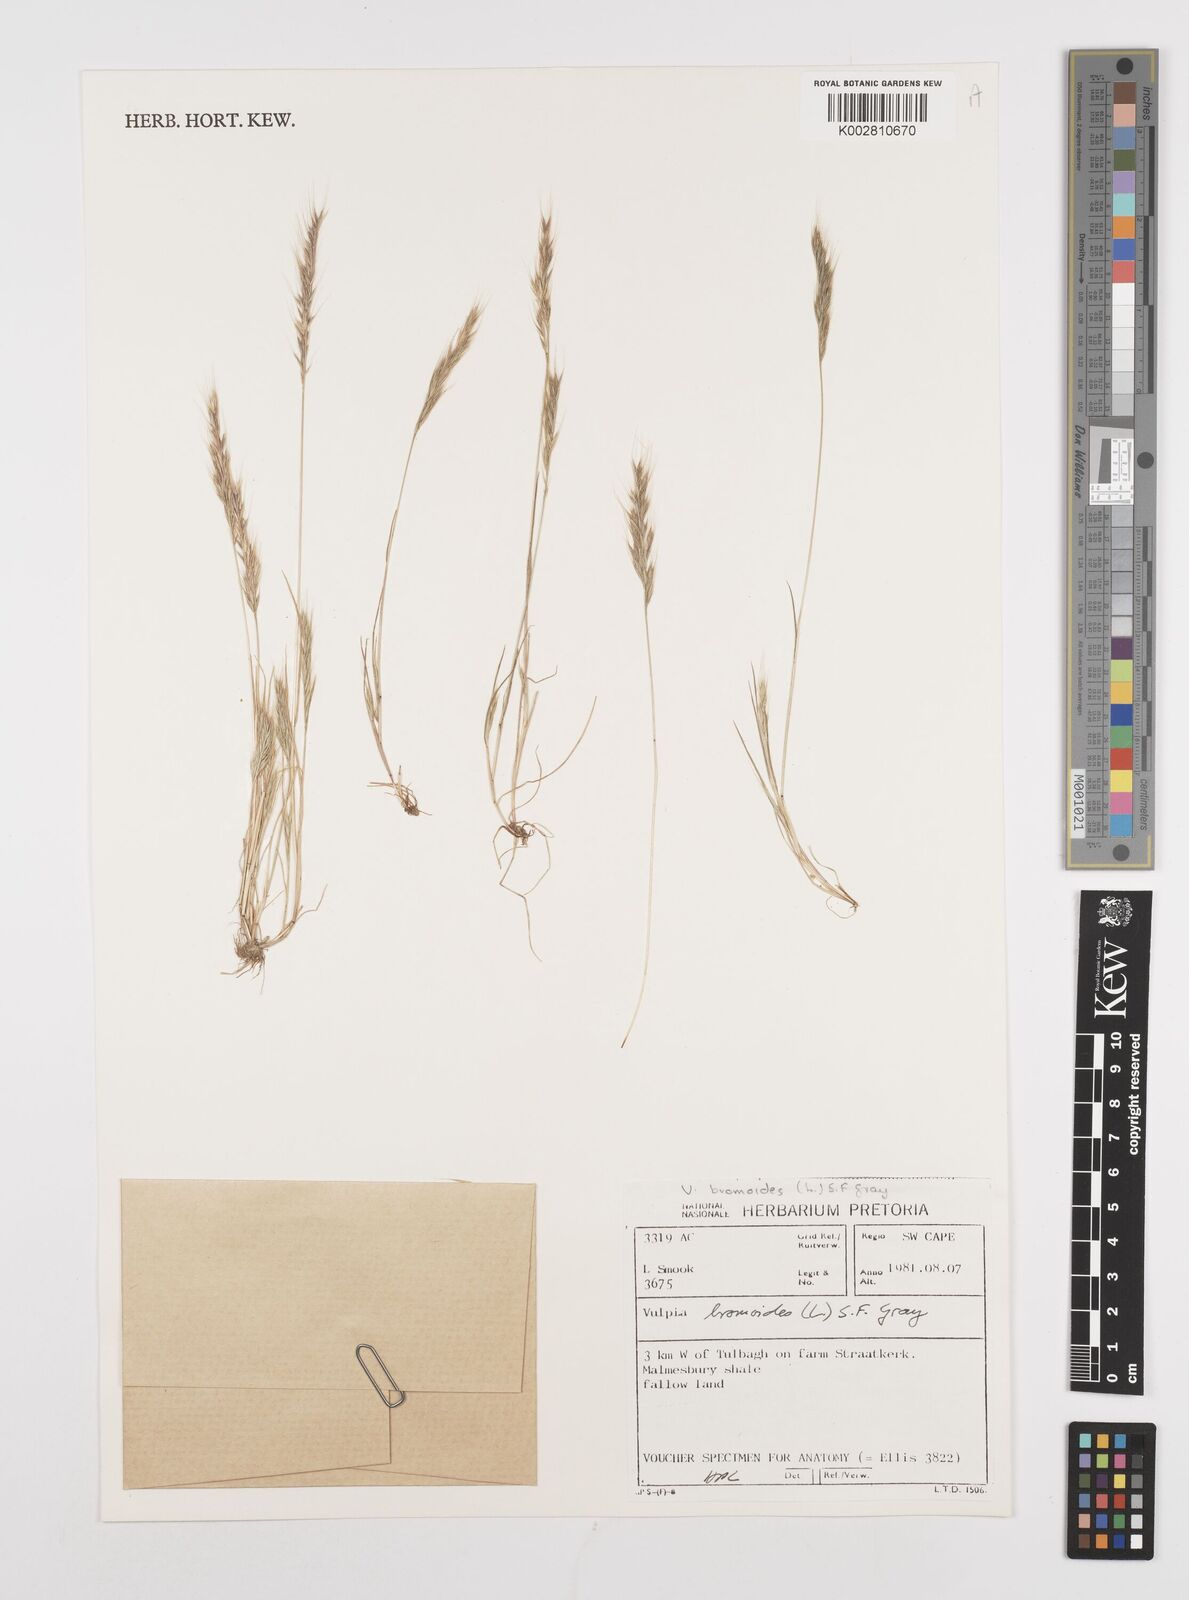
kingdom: Plantae
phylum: Tracheophyta
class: Liliopsida
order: Poales
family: Poaceae
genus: Festuca
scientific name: Festuca bromoides
